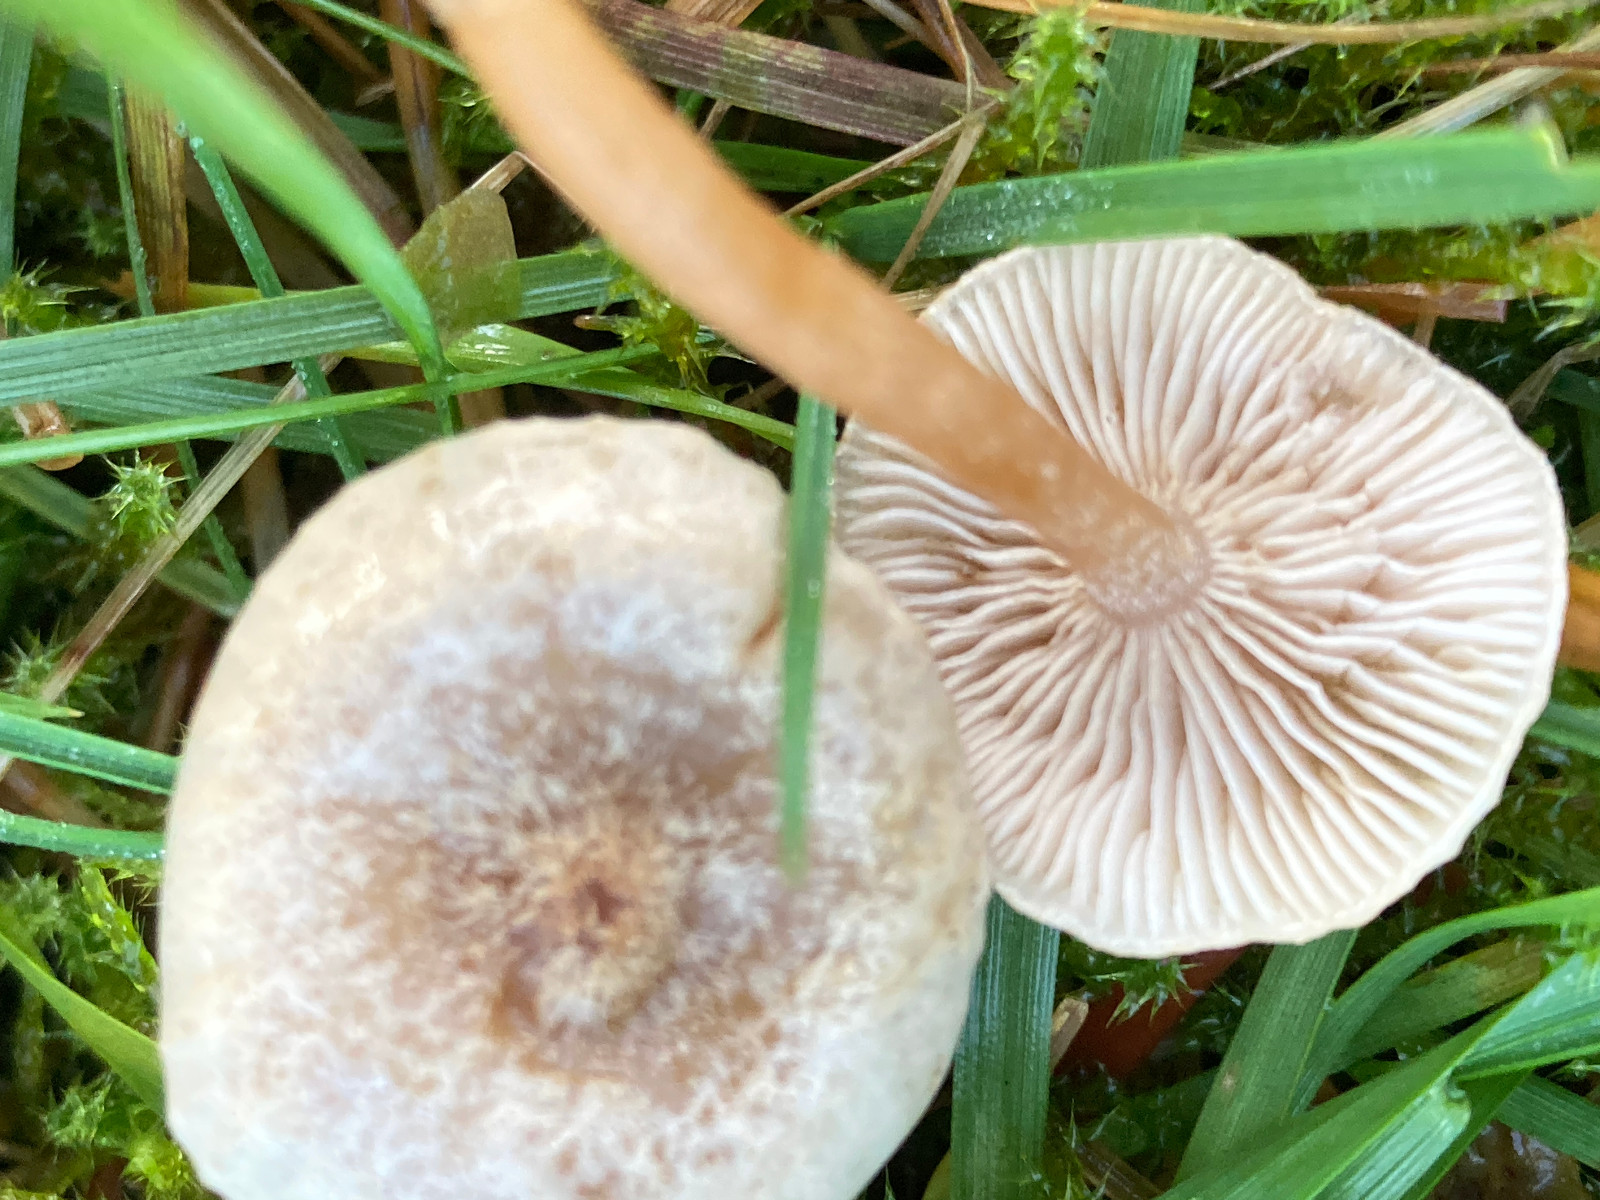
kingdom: Fungi
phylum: Basidiomycota
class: Agaricomycetes
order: Agaricales
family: Tricholomataceae
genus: Clitocybe
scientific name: Clitocybe rivulosa
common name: eng-tragthat
